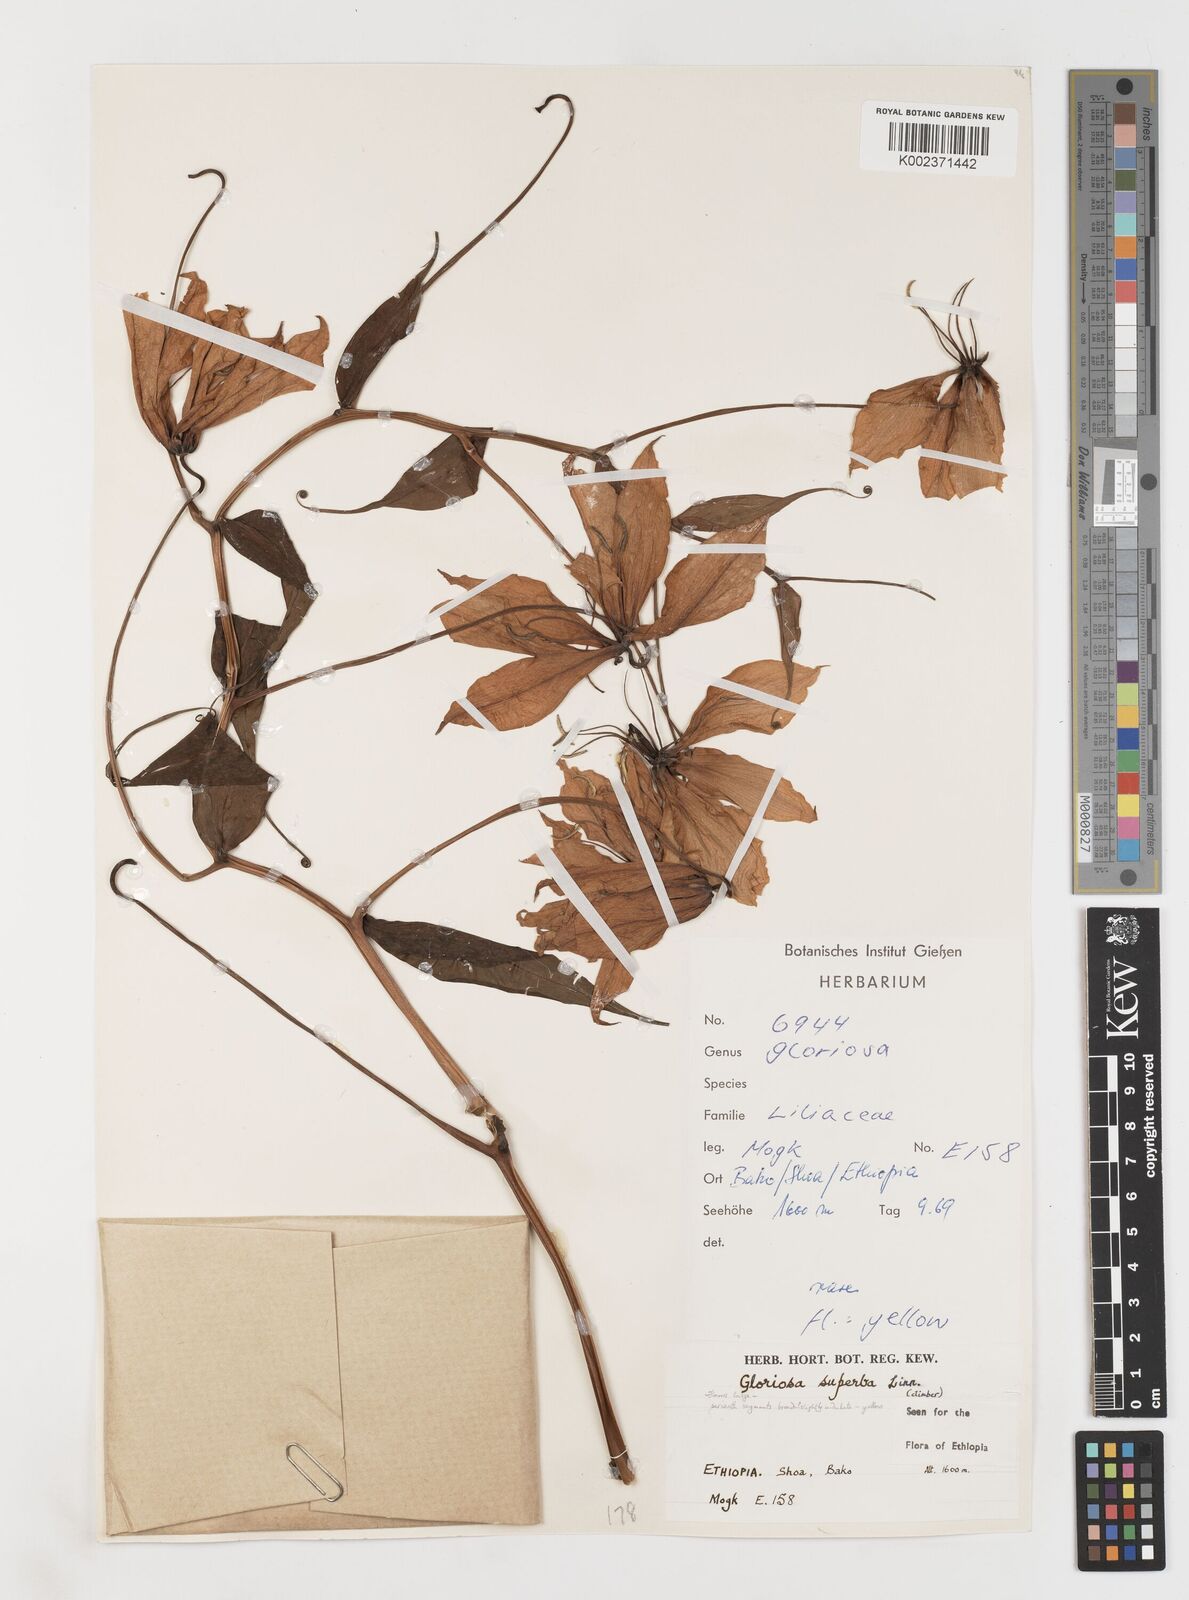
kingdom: Plantae
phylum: Tracheophyta
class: Liliopsida
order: Liliales
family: Colchicaceae
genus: Gloriosa
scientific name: Gloriosa simplex
